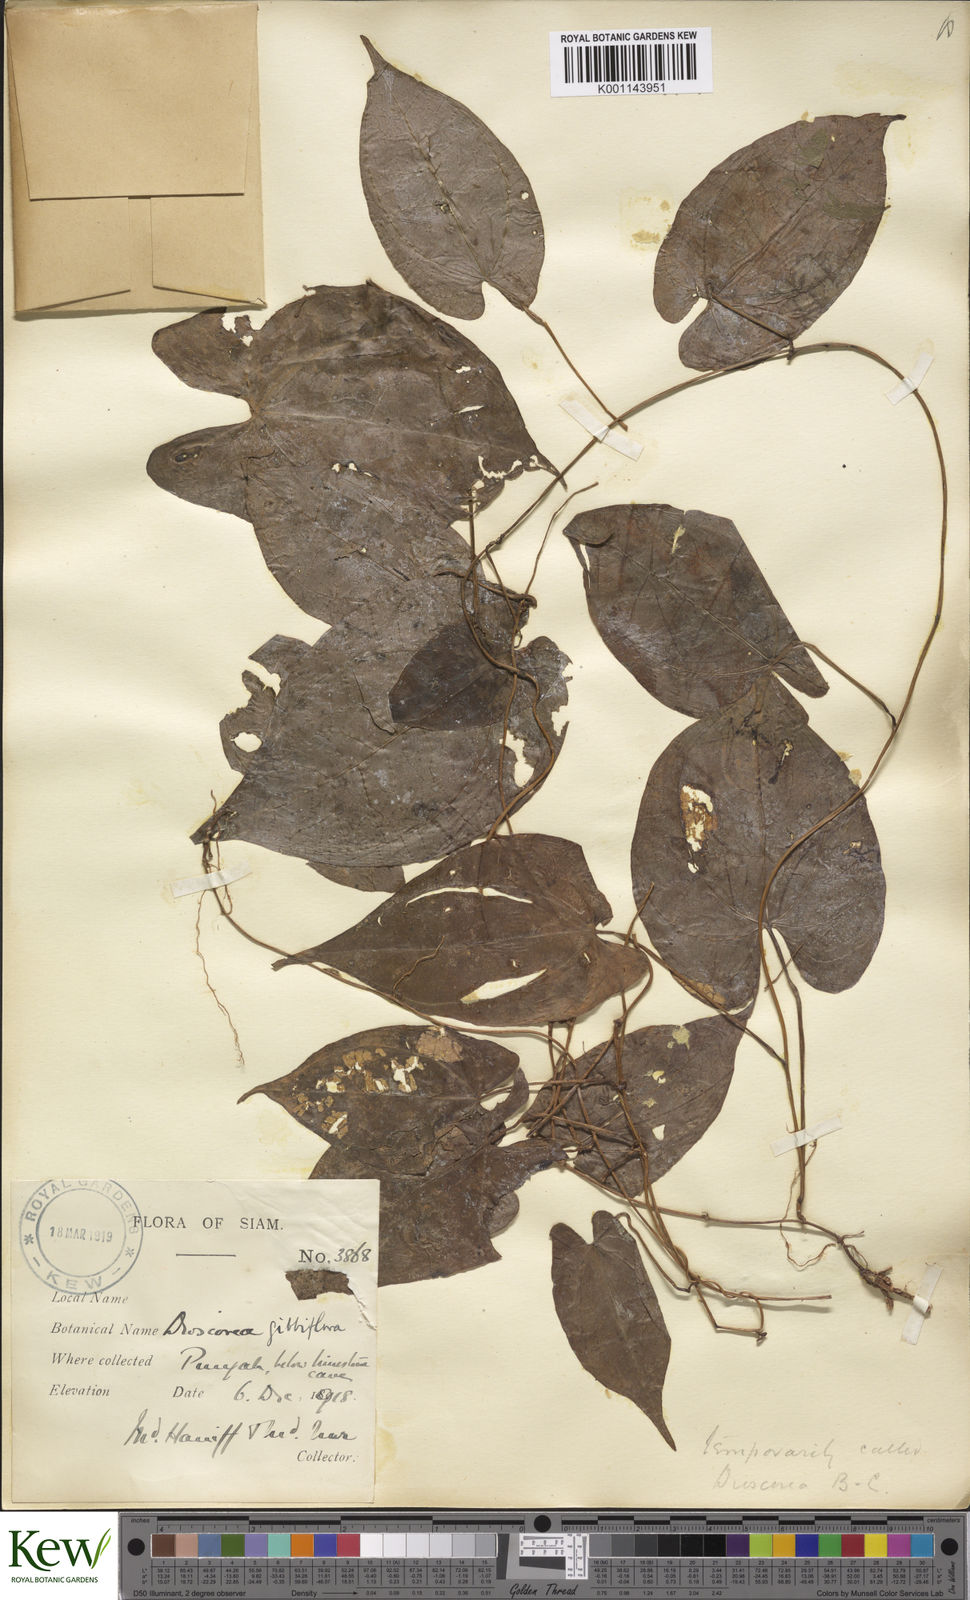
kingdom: Plantae
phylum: Tracheophyta
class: Liliopsida
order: Dioscoreales
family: Dioscoreaceae
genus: Dioscorea
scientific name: Dioscorea filiformis
